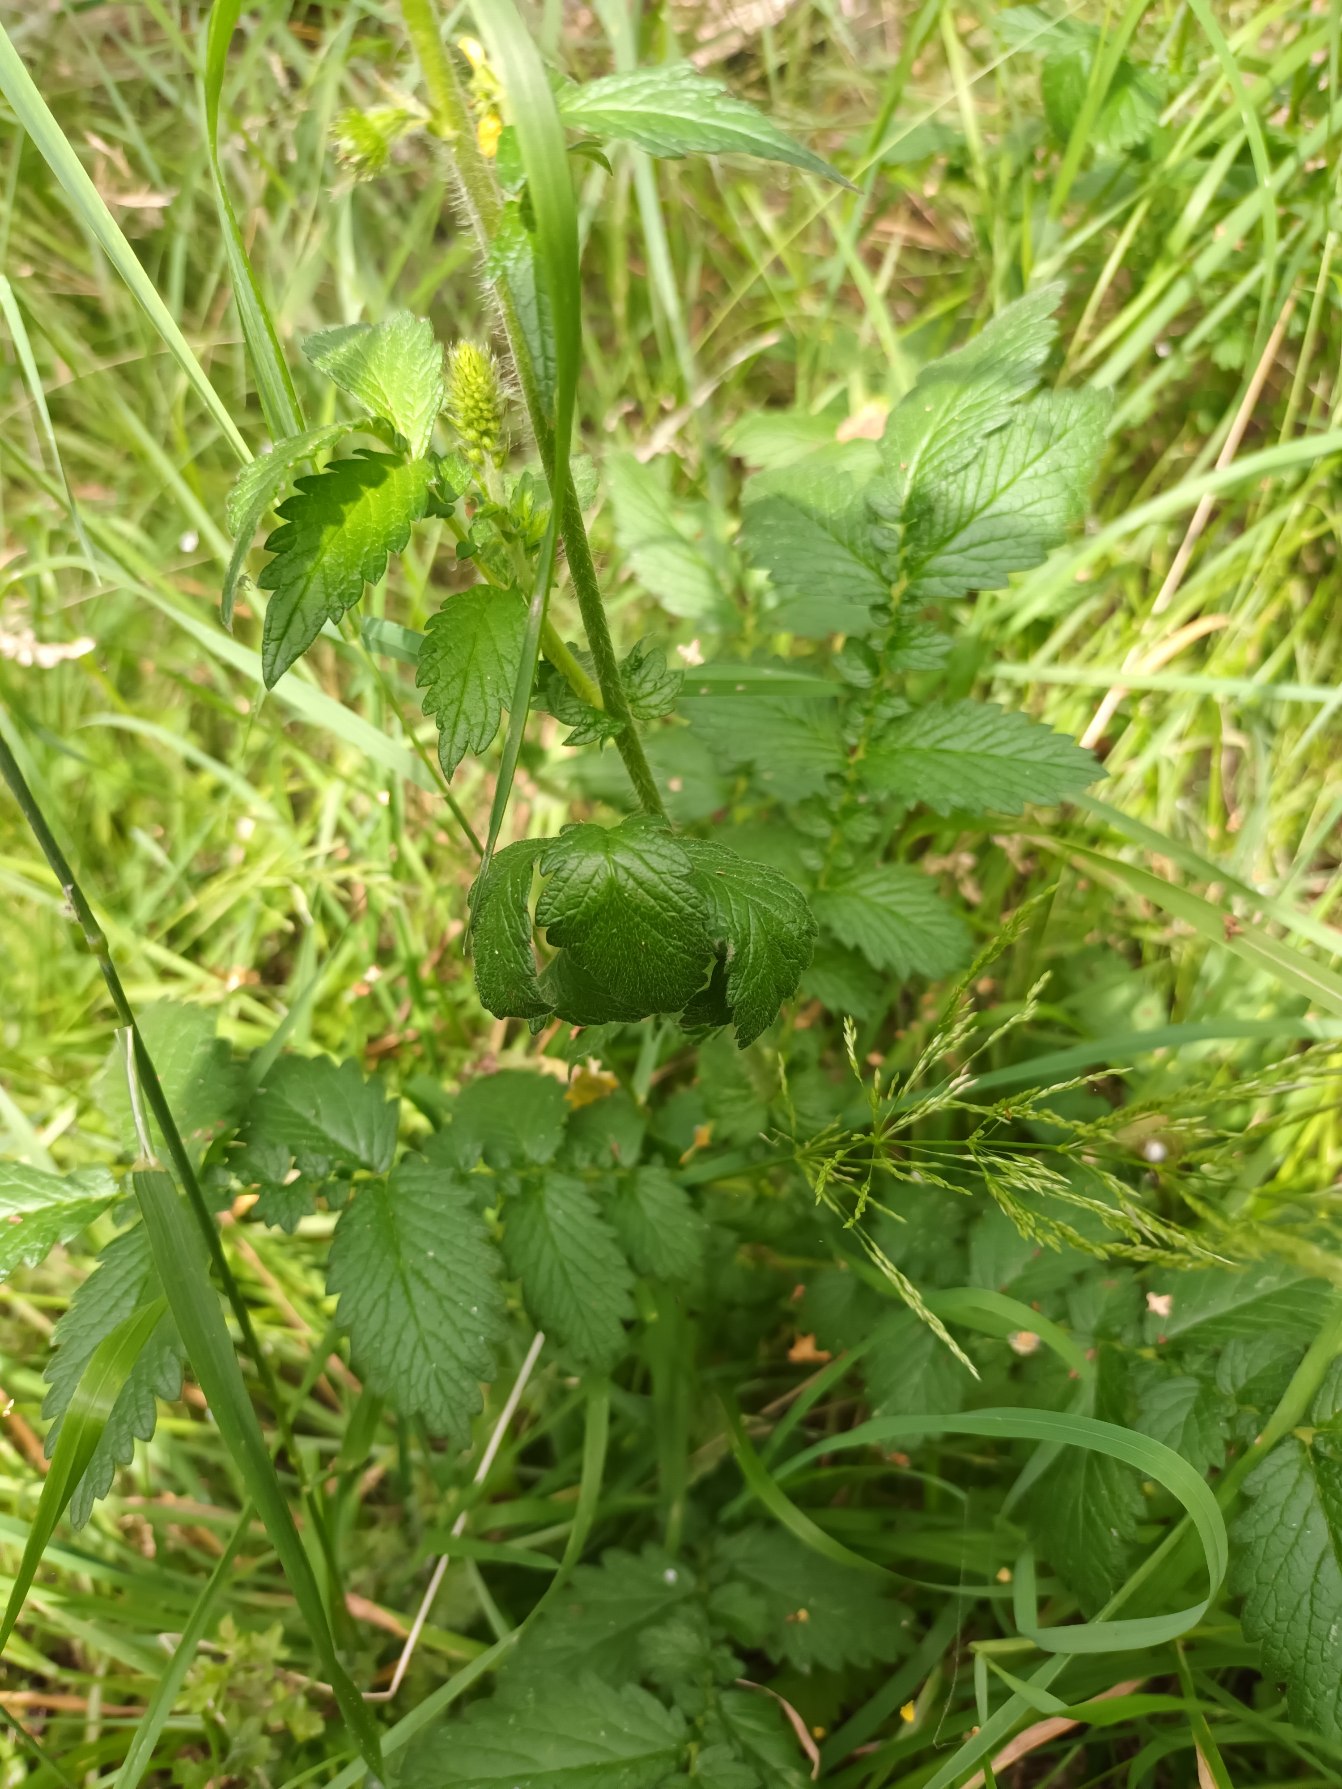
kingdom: Plantae
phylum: Tracheophyta
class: Magnoliopsida
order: Rosales
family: Rosaceae
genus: Agrimonia
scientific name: Agrimonia eupatoria
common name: Almindelig agermåne
